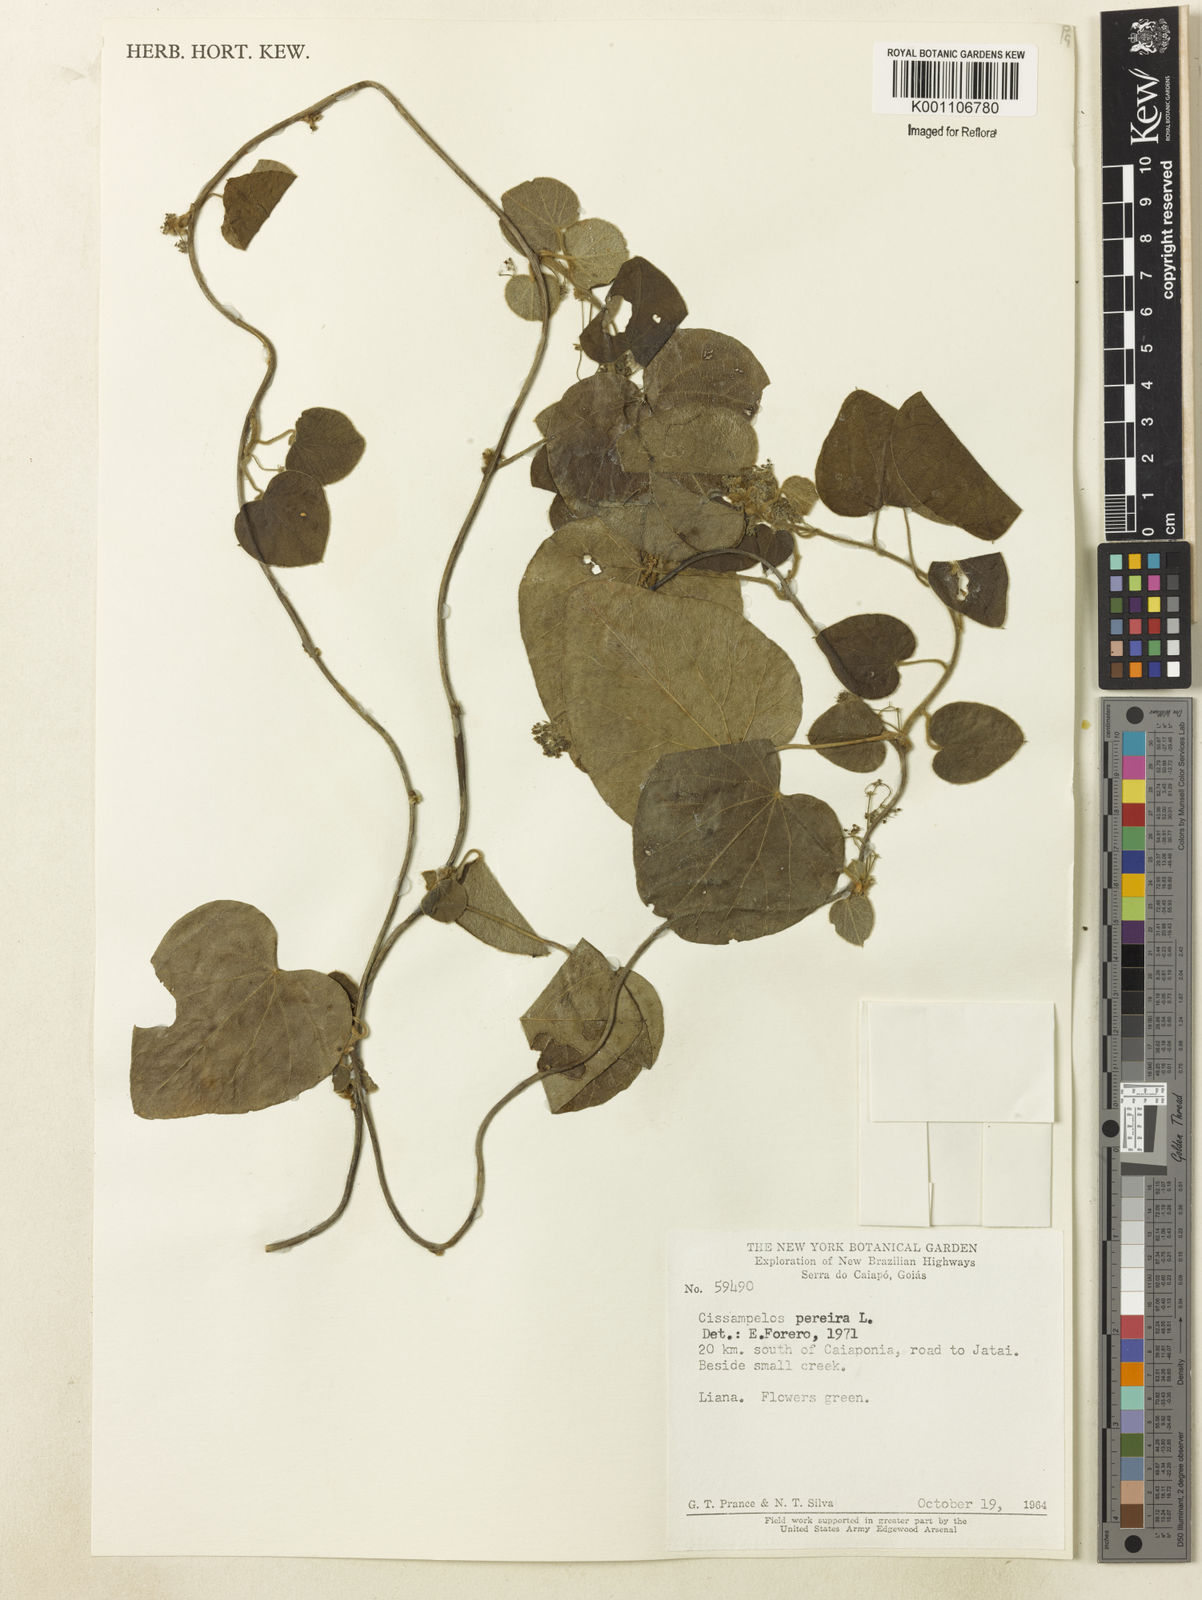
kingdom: Plantae
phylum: Tracheophyta
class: Magnoliopsida
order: Ranunculales
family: Menispermaceae
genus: Cissampelos
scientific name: Cissampelos pareira
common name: Velvetleaf
